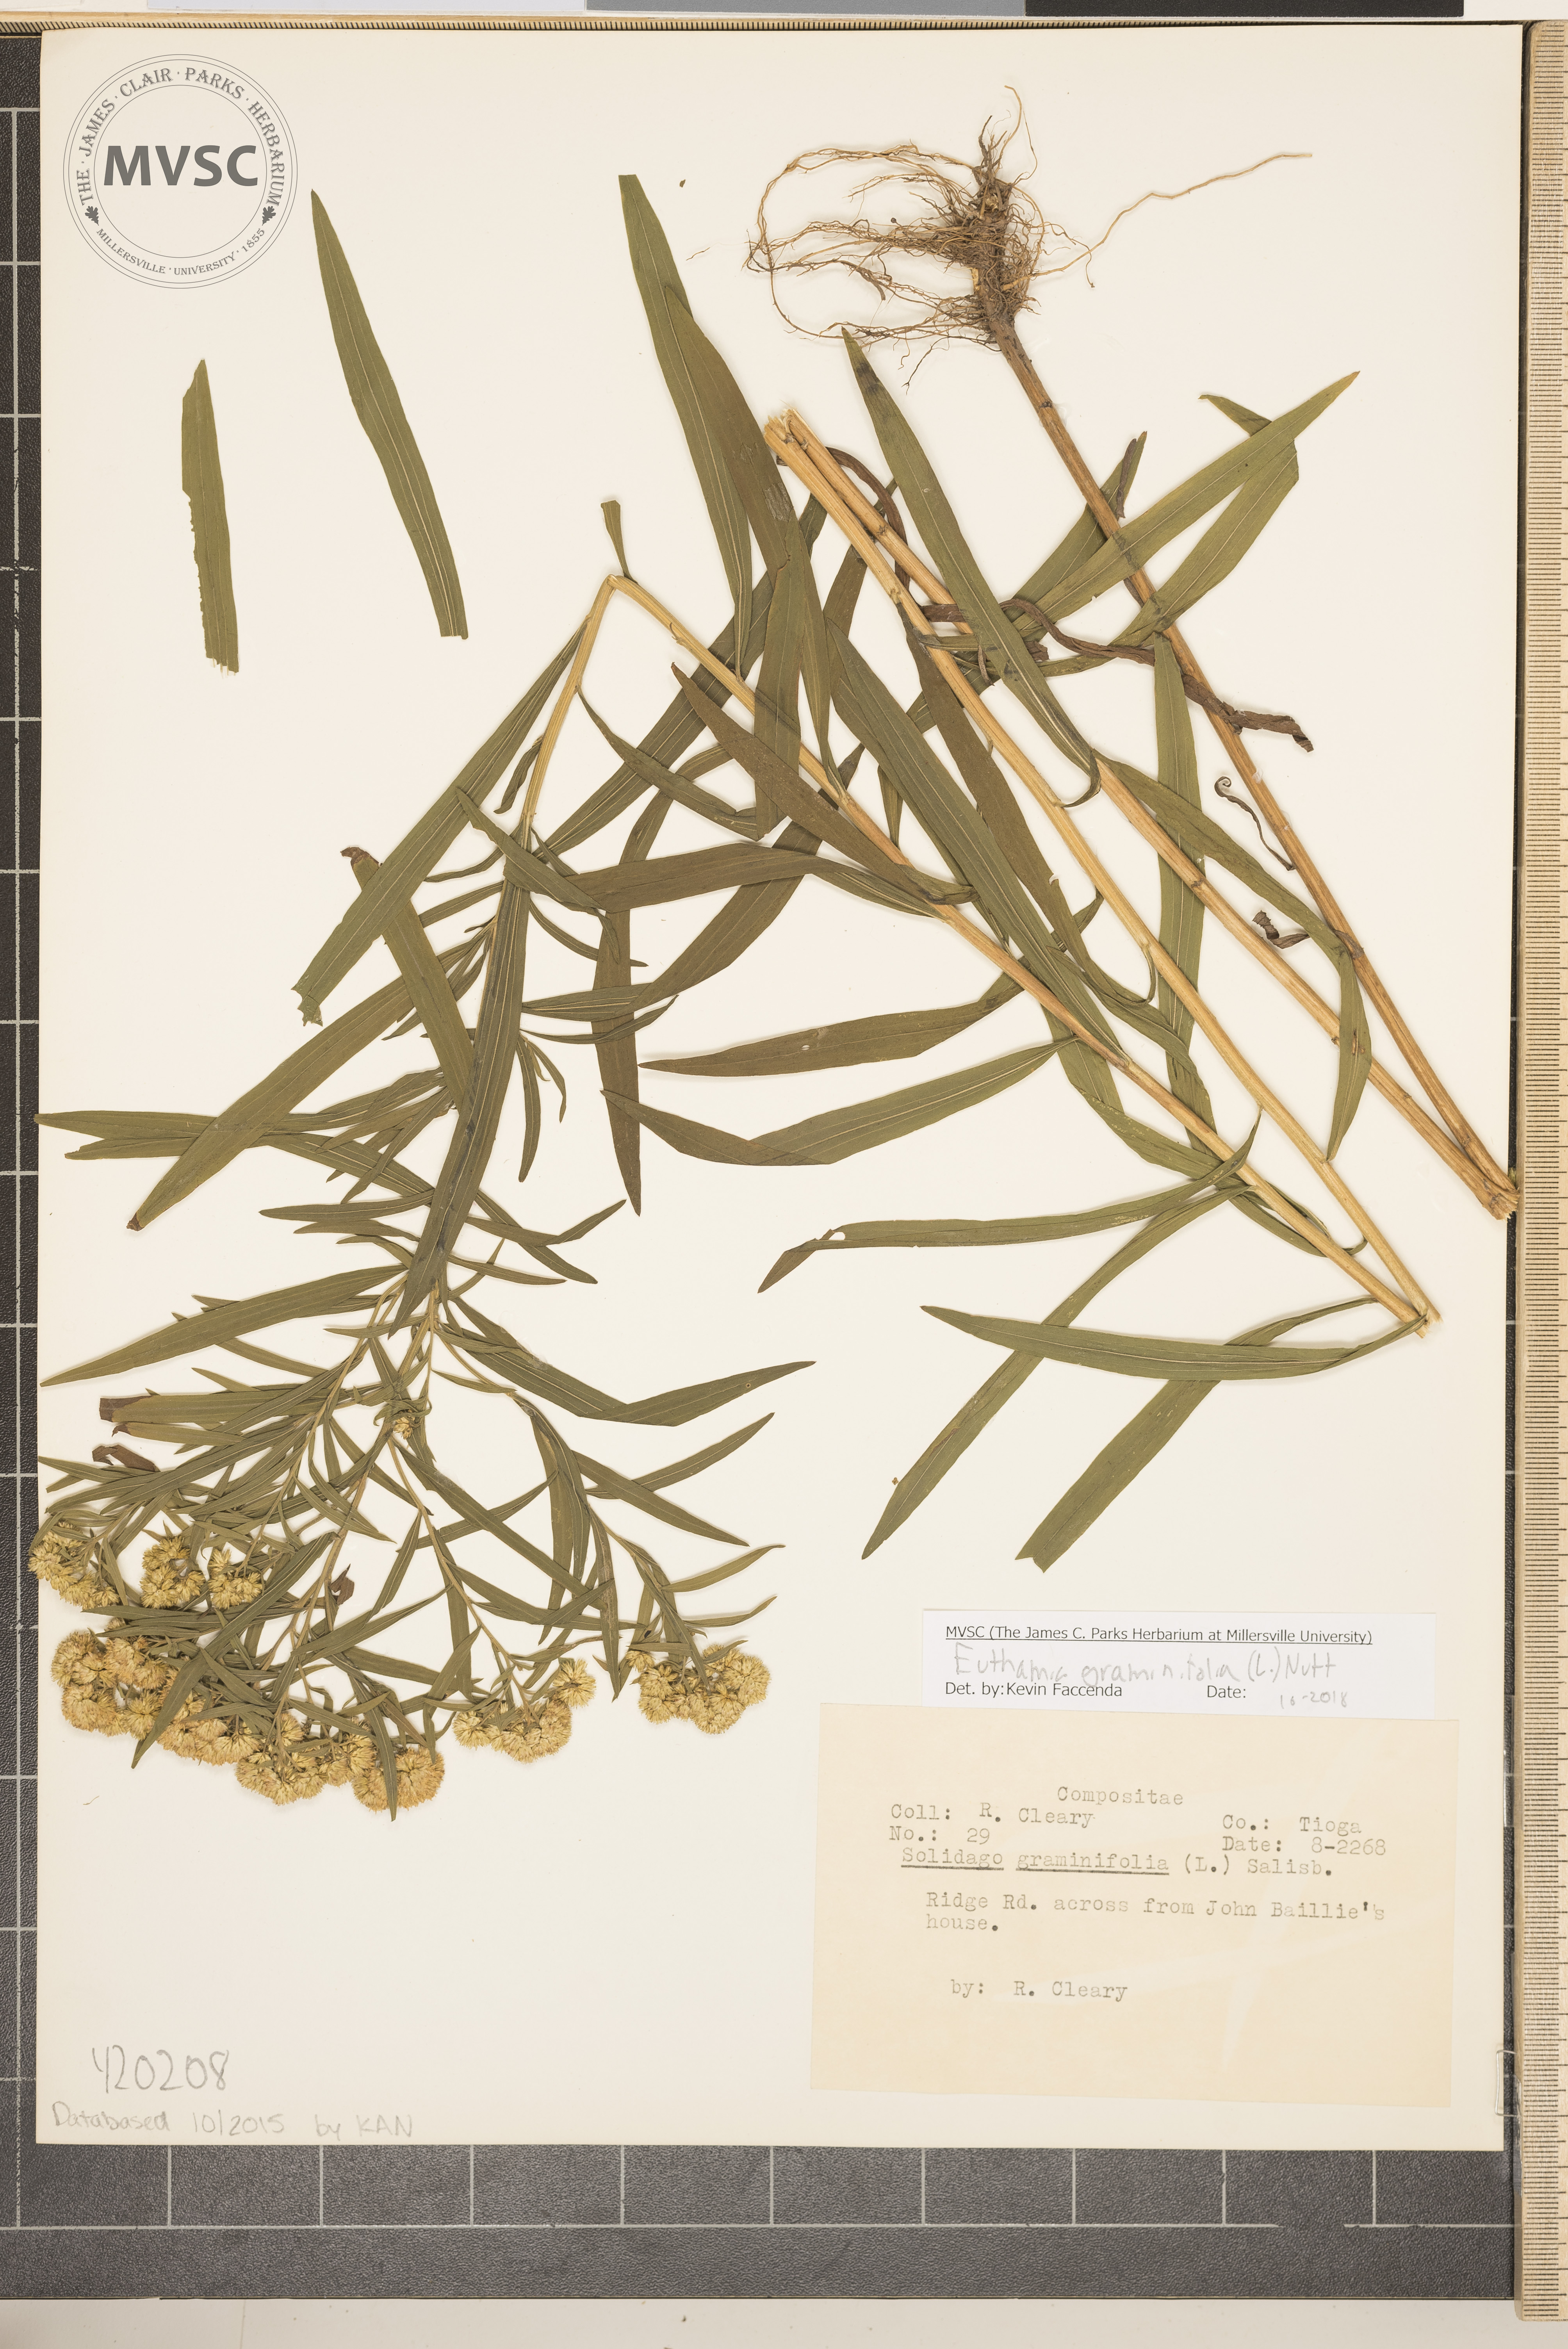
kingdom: Plantae
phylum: Tracheophyta
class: Magnoliopsida
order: Asterales
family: Asteraceae
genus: Euthamia
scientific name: Euthamia graminifolia
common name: Goldenrod
